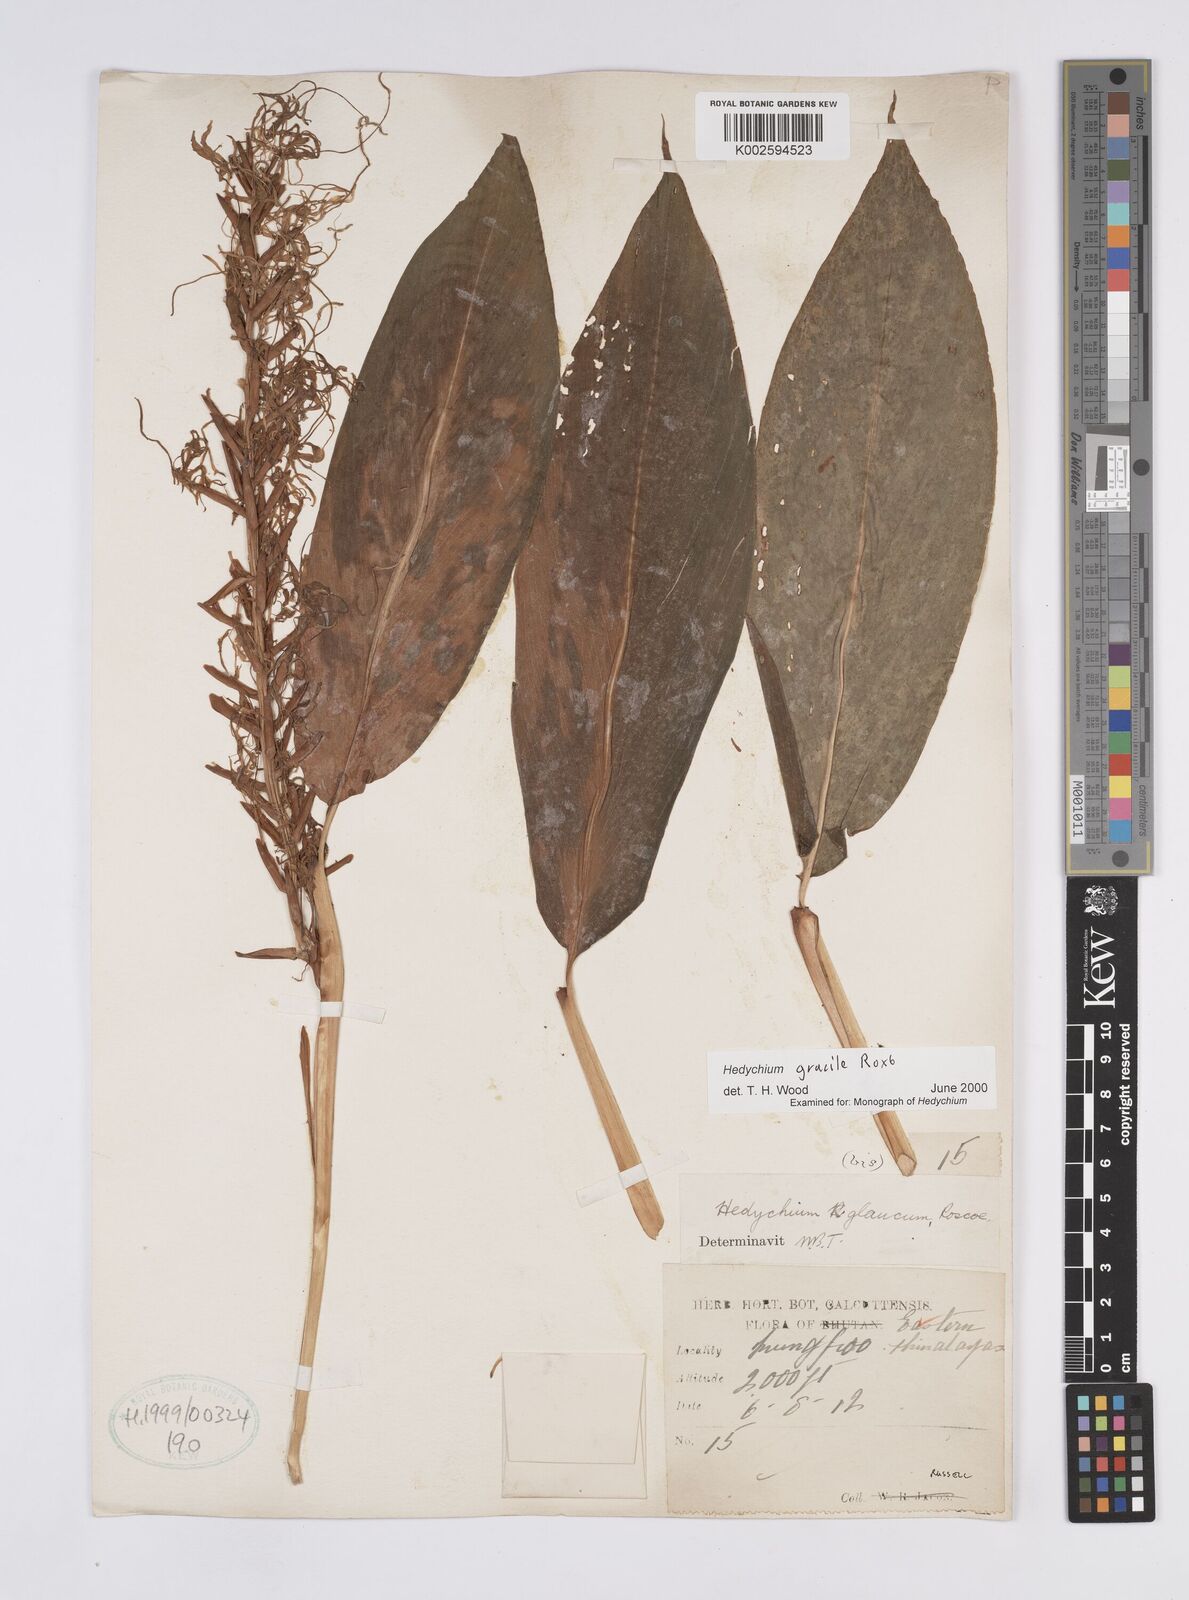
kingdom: Plantae
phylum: Tracheophyta
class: Liliopsida
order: Zingiberales
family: Zingiberaceae
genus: Hedychium
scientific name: Hedychium gracile
